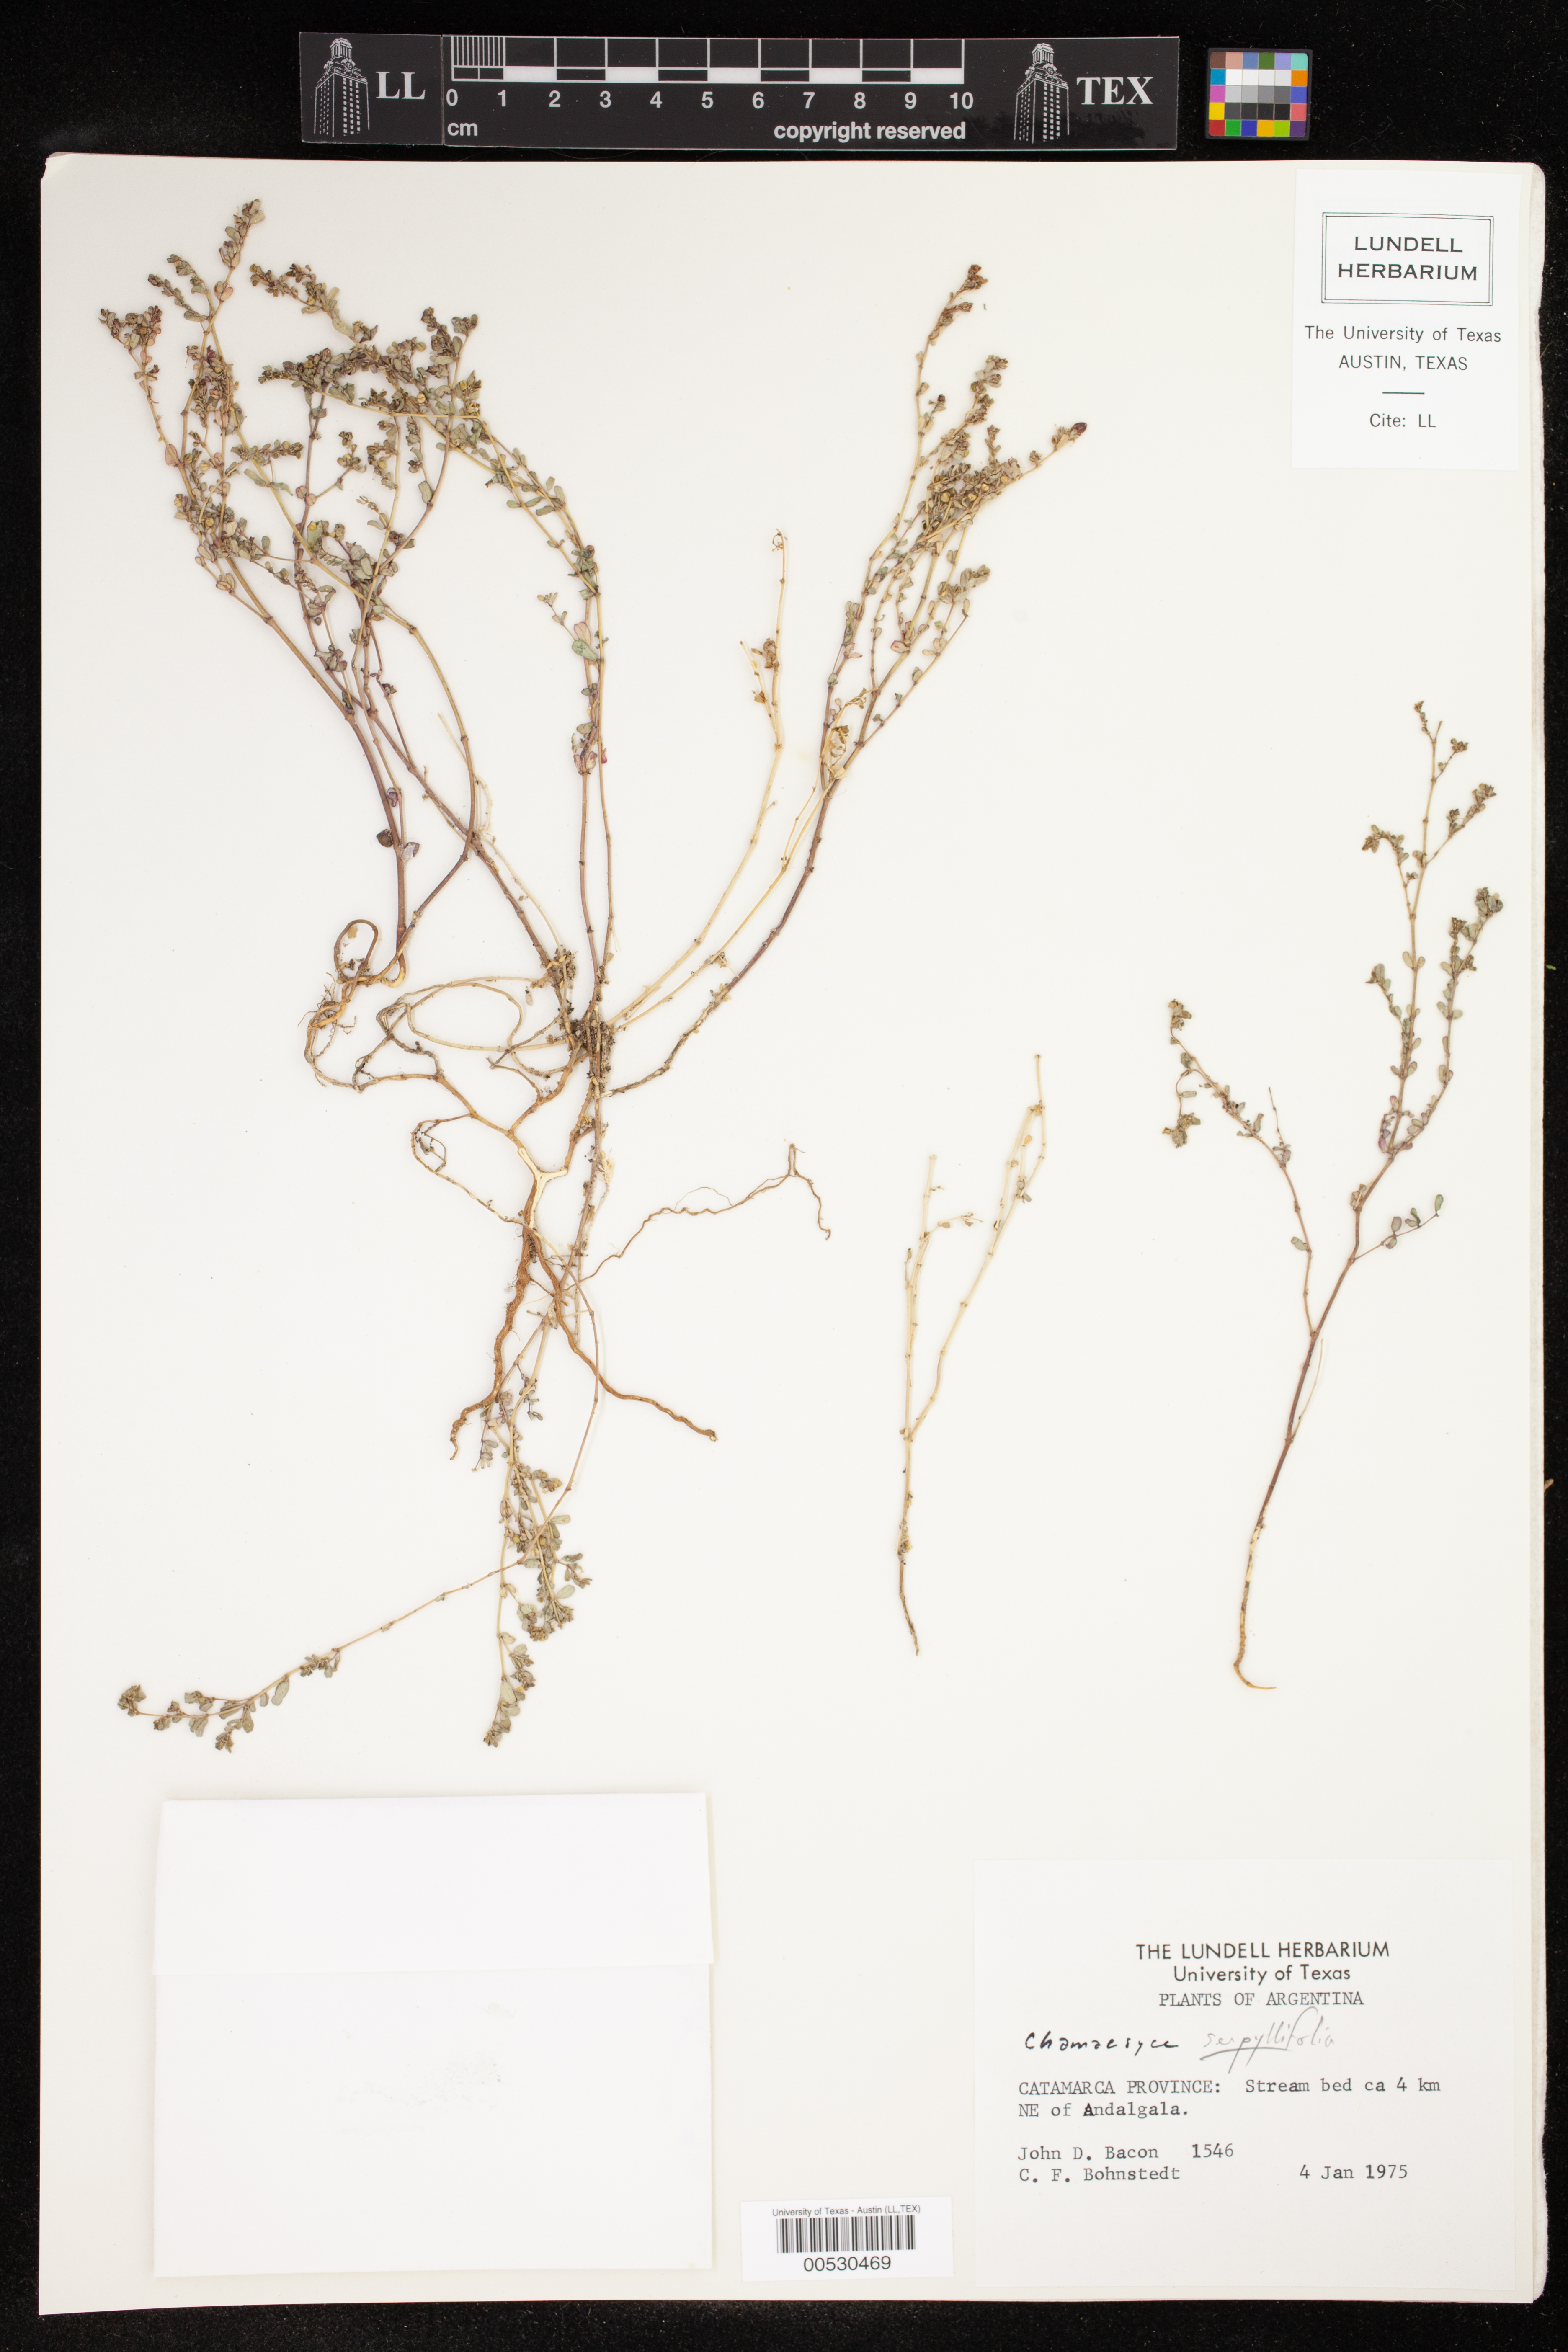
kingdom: Plantae
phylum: Tracheophyta
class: Magnoliopsida
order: Malpighiales
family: Euphorbiaceae
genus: Euphorbia
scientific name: Euphorbia serpillifolia
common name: Thyme-leaf spurge
